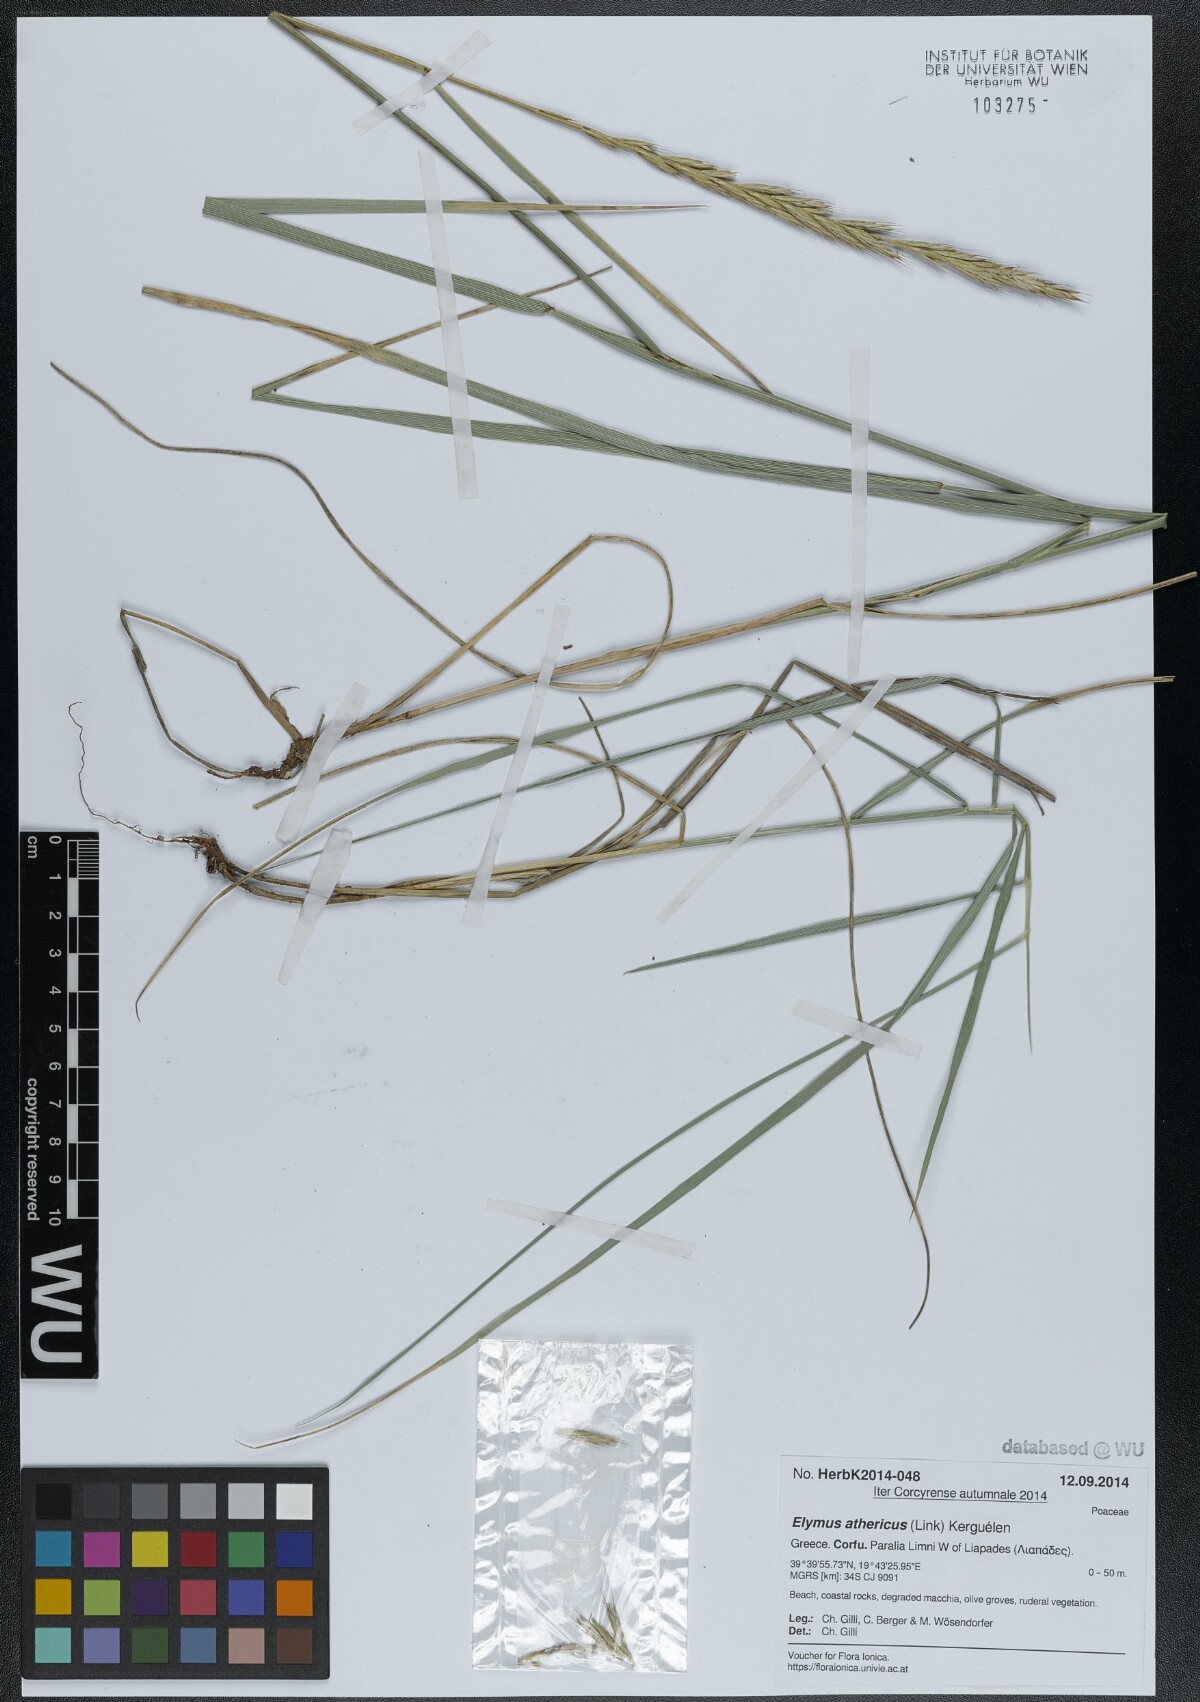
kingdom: Plantae
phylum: Tracheophyta
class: Liliopsida
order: Poales
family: Poaceae
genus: Elymus
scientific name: Elymus athericus
